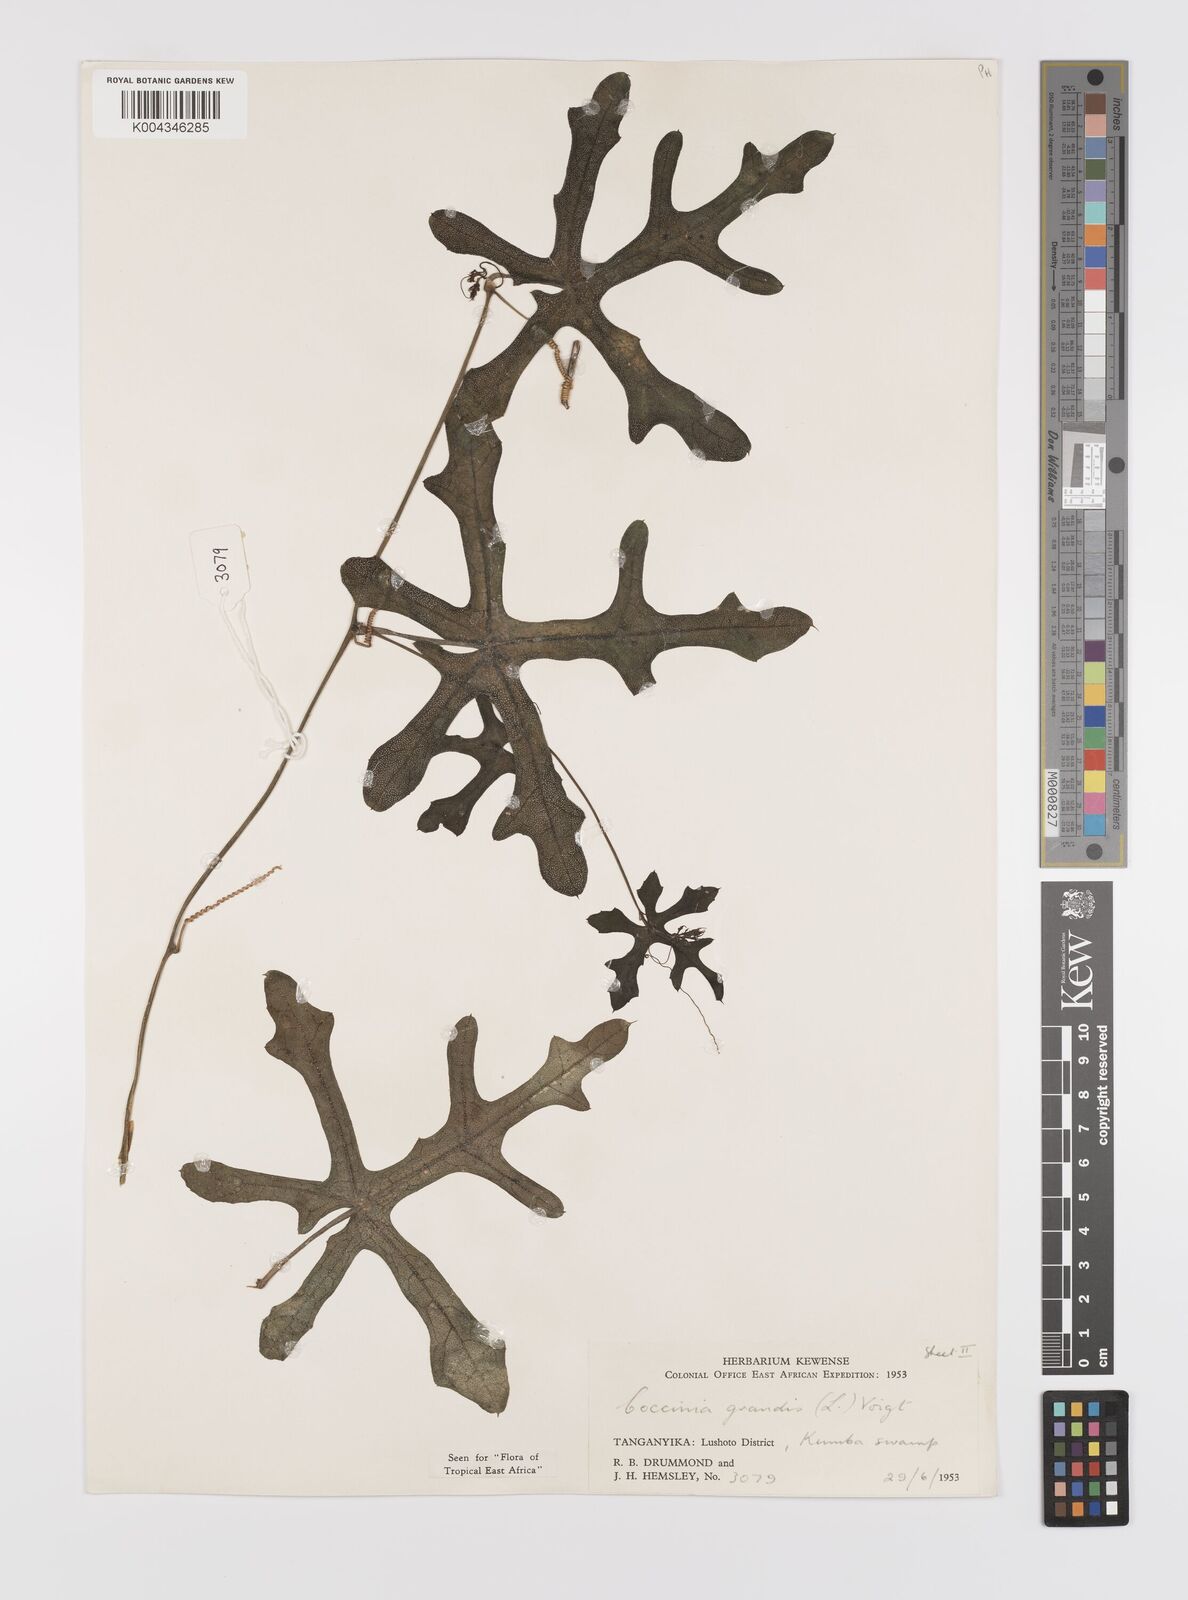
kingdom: Plantae
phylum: Tracheophyta
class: Magnoliopsida
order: Cucurbitales
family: Cucurbitaceae
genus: Coccinia
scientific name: Coccinia grandis
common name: Ivy gourd
